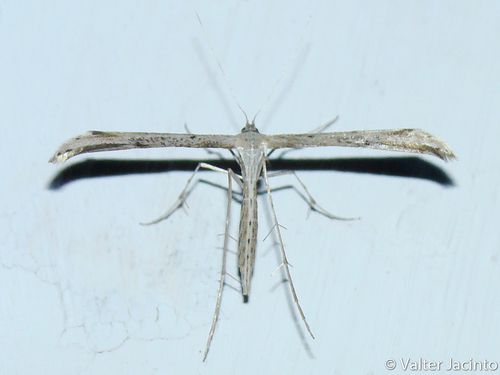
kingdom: Animalia
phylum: Arthropoda
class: Insecta
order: Lepidoptera
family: Pterophoridae
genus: Emmelina
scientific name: Emmelina monodactyla
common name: Common plume
